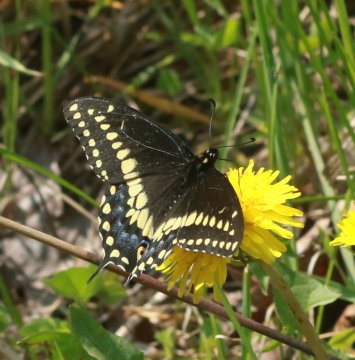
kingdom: Animalia
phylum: Arthropoda
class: Insecta
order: Lepidoptera
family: Papilionidae
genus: Papilio
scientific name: Papilio polyxenes
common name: Black Swallowtail
